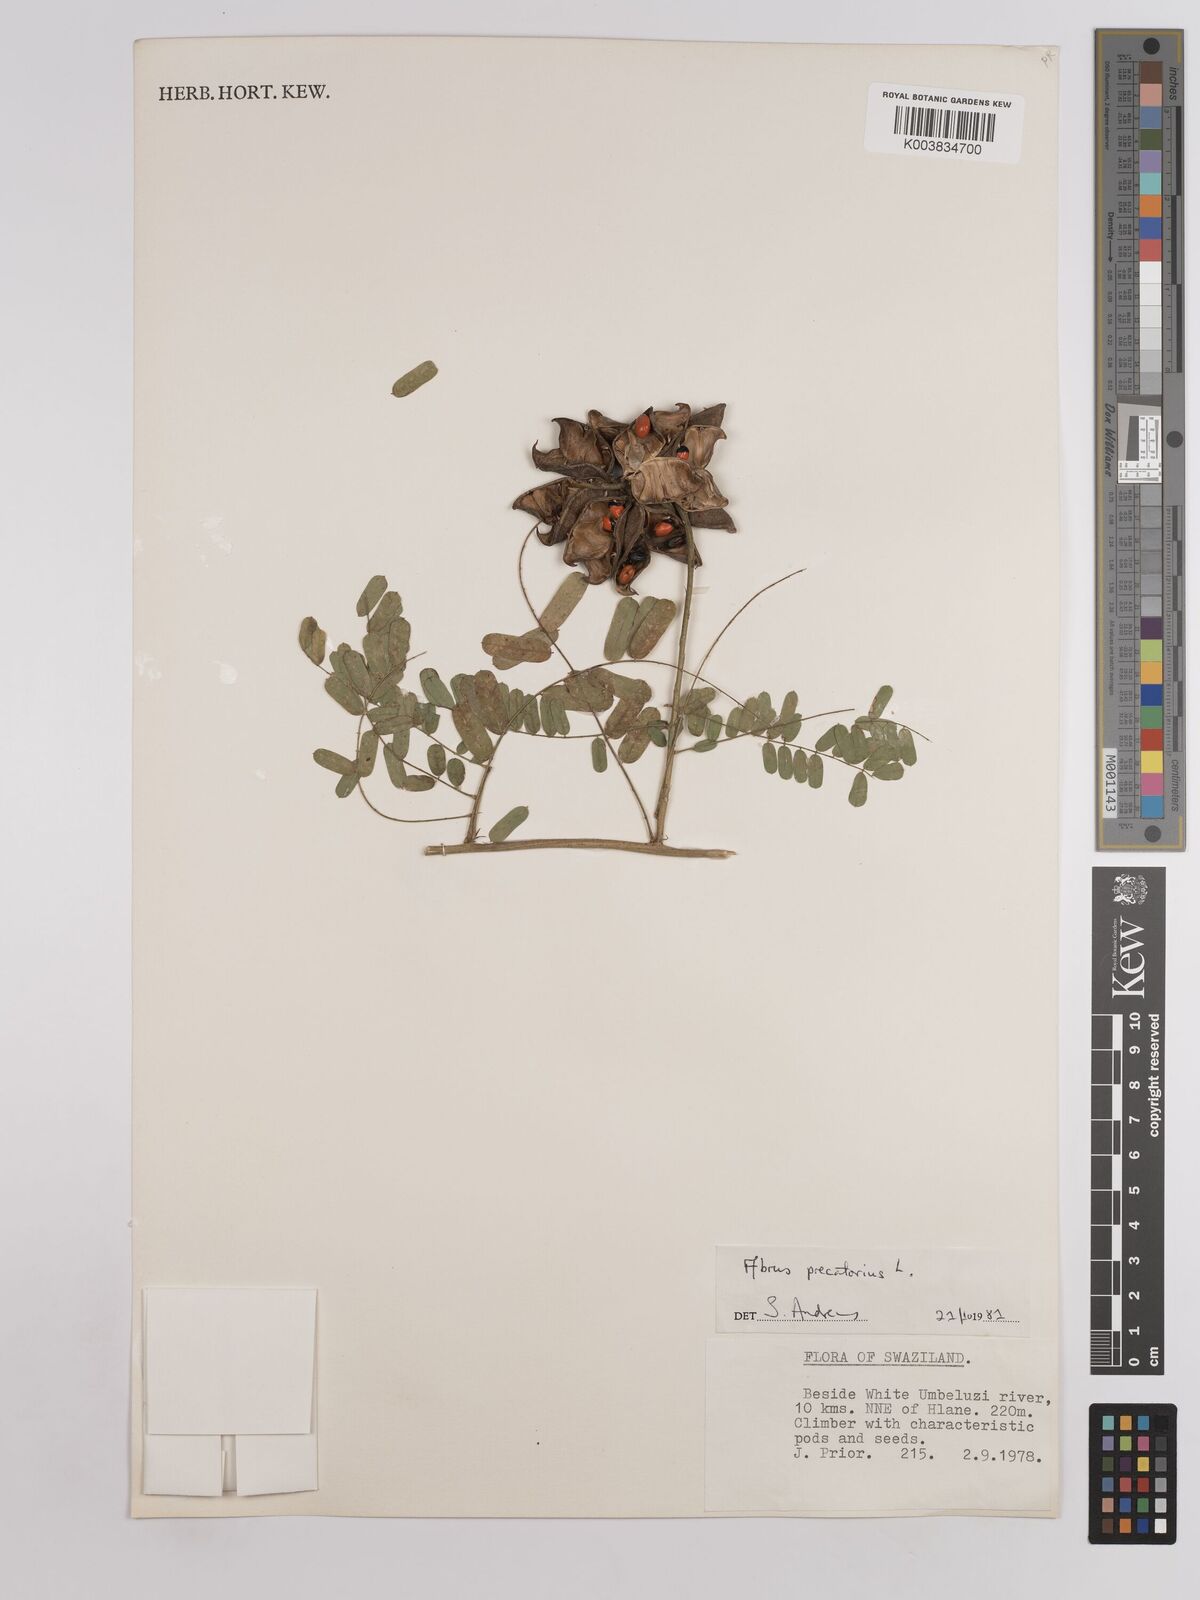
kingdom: Plantae
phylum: Tracheophyta
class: Magnoliopsida
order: Fabales
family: Fabaceae
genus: Abrus
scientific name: Abrus precatorius
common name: Rosarypea
